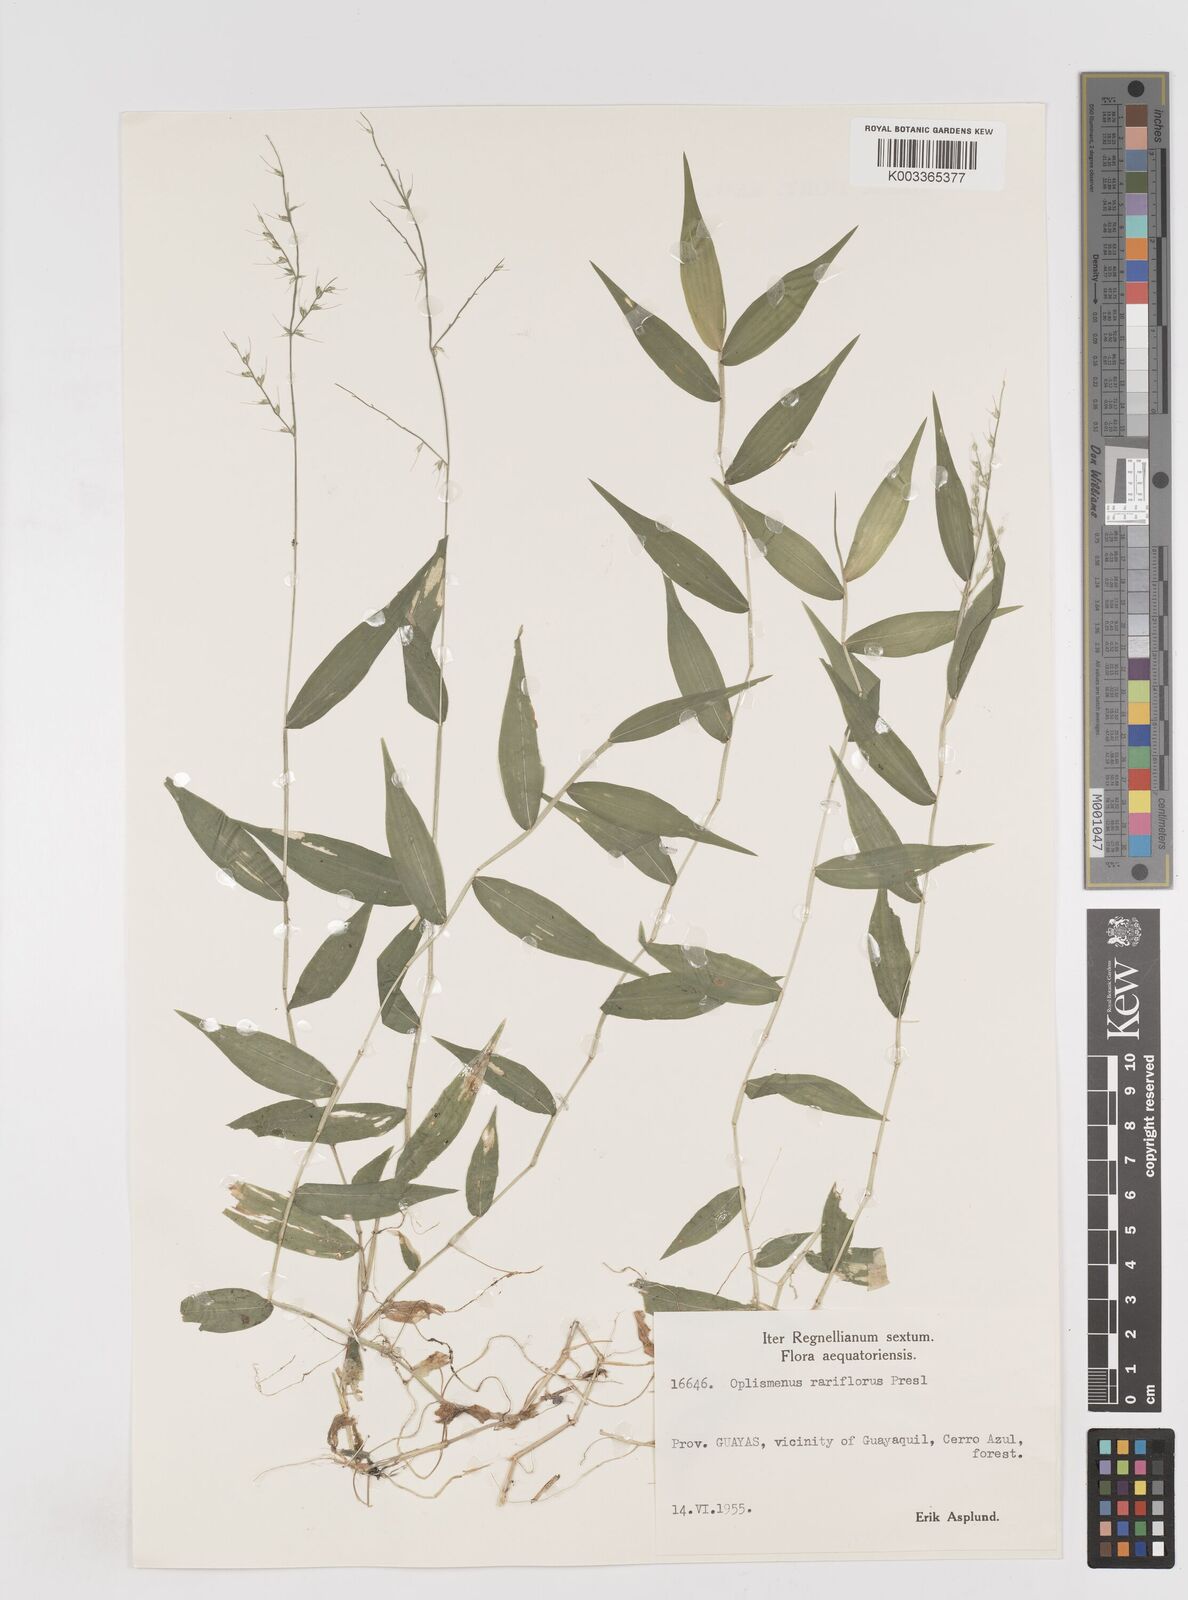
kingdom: Plantae
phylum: Tracheophyta
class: Liliopsida
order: Poales
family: Poaceae
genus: Oplismenus
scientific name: Oplismenus compositus
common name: Running mountain grass
